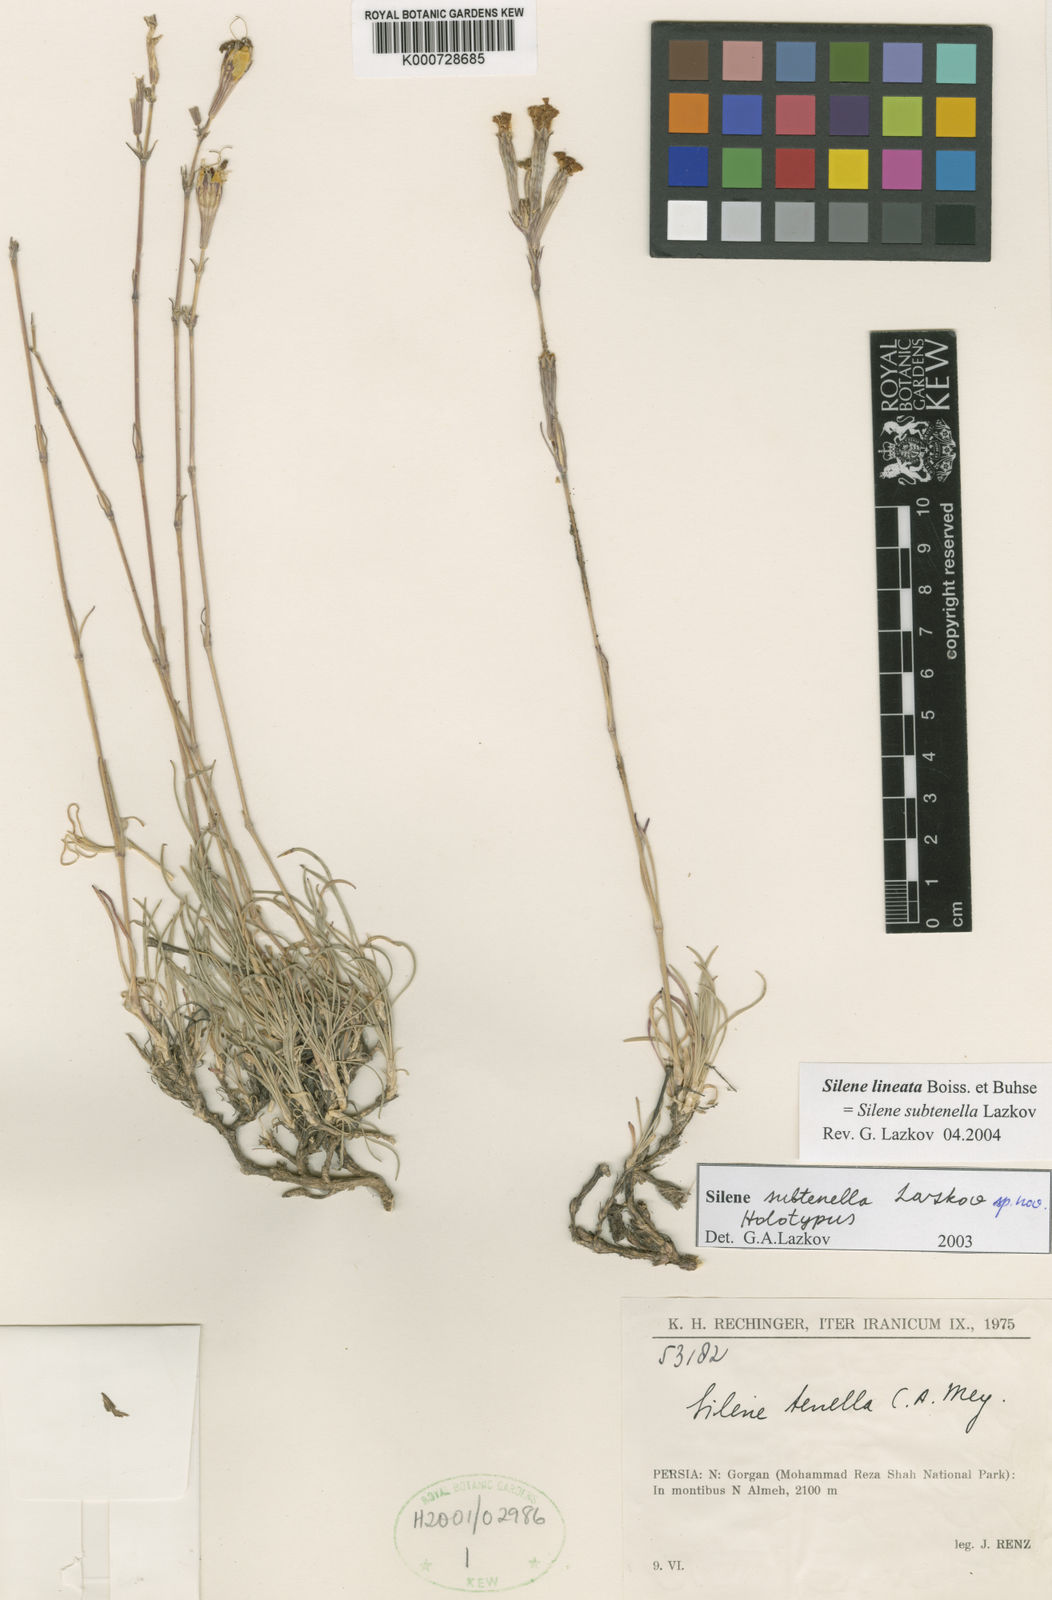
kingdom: Plantae
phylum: Tracheophyta
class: Magnoliopsida
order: Caryophyllales
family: Caryophyllaceae
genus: Silene
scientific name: Silene tenella
